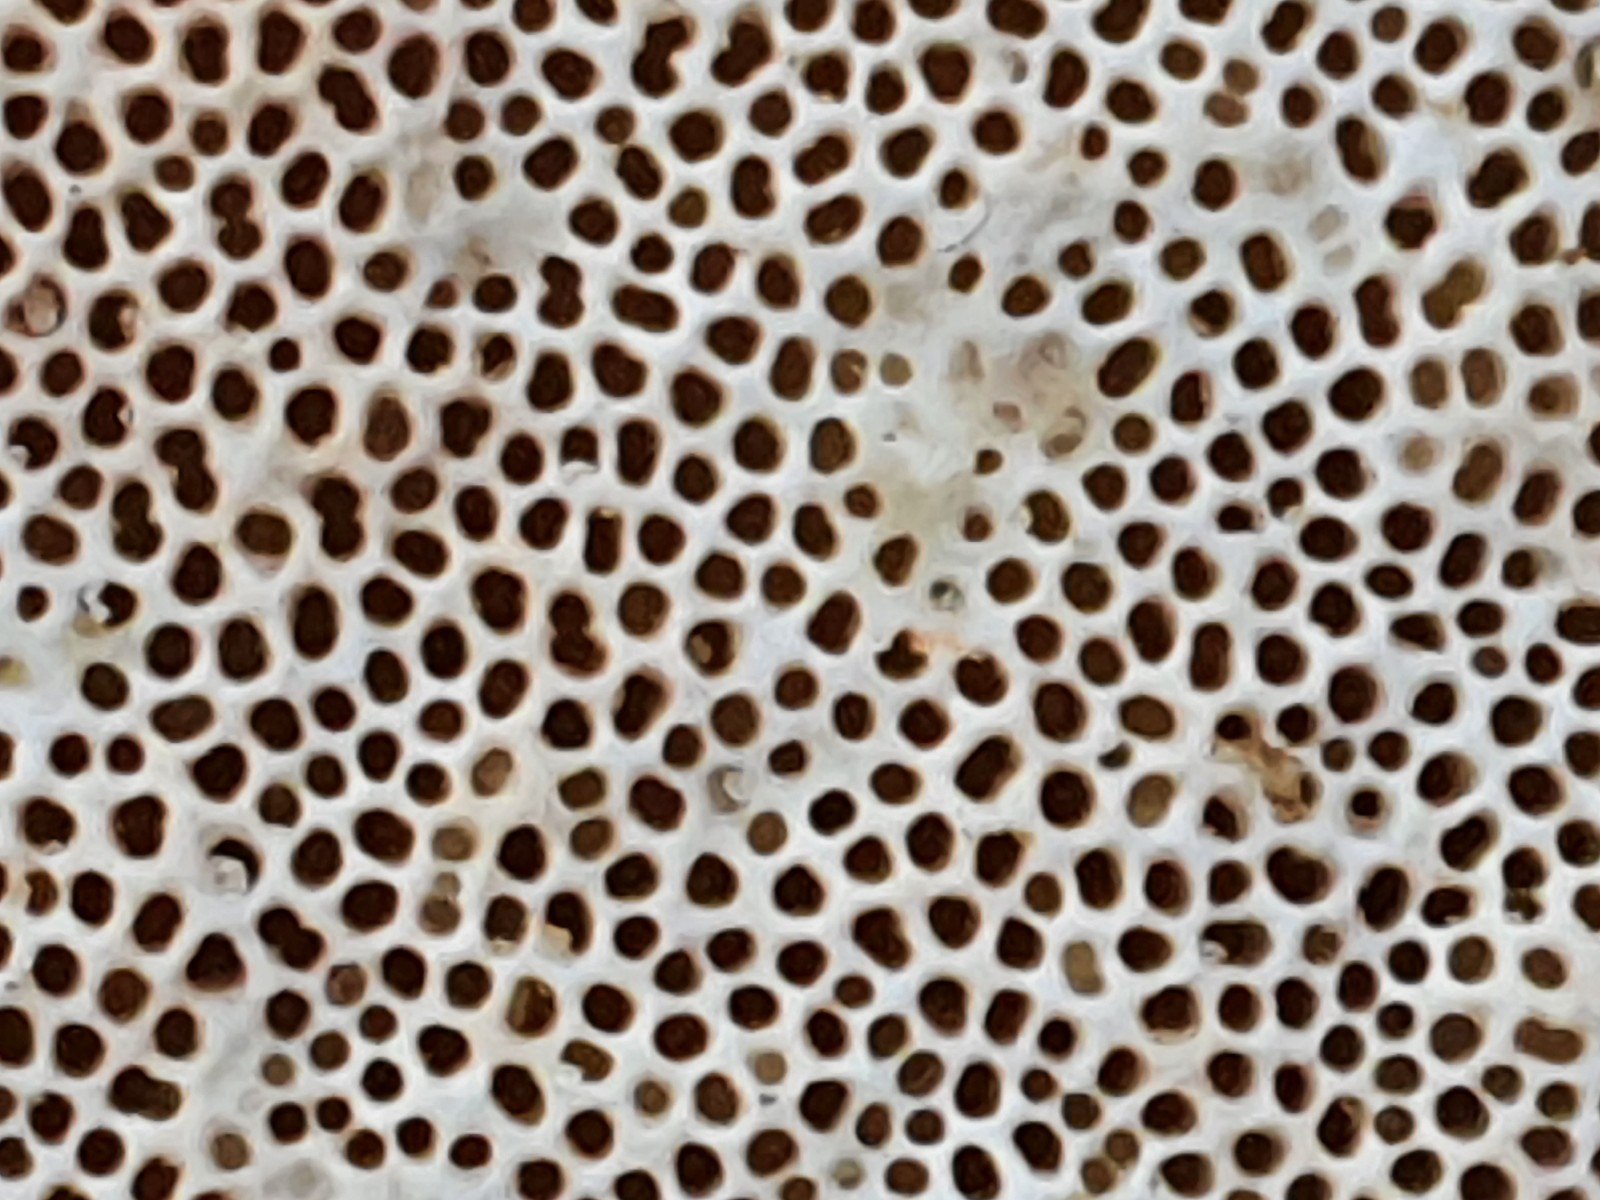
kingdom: Fungi
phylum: Basidiomycota
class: Agaricomycetes
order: Polyporales
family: Polyporaceae
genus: Trametes
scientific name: Trametes hirsuta
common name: håret læderporesvamp
